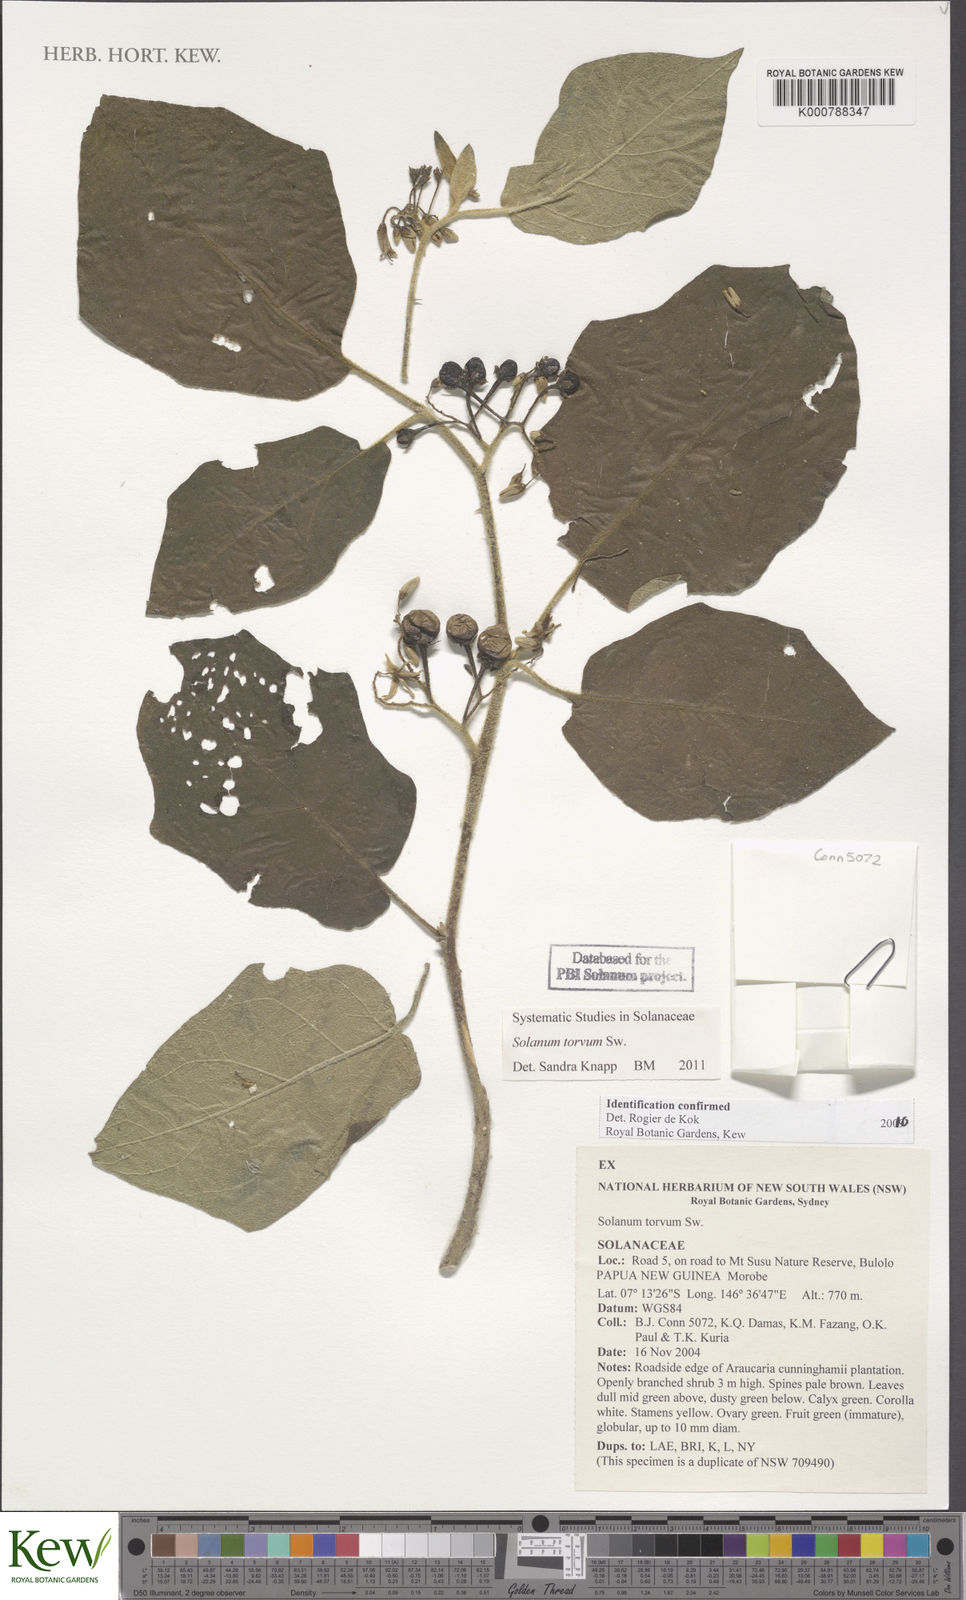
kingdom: Plantae
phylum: Tracheophyta
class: Magnoliopsida
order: Solanales
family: Solanaceae
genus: Solanum
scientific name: Solanum torvum
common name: Turkey berry
